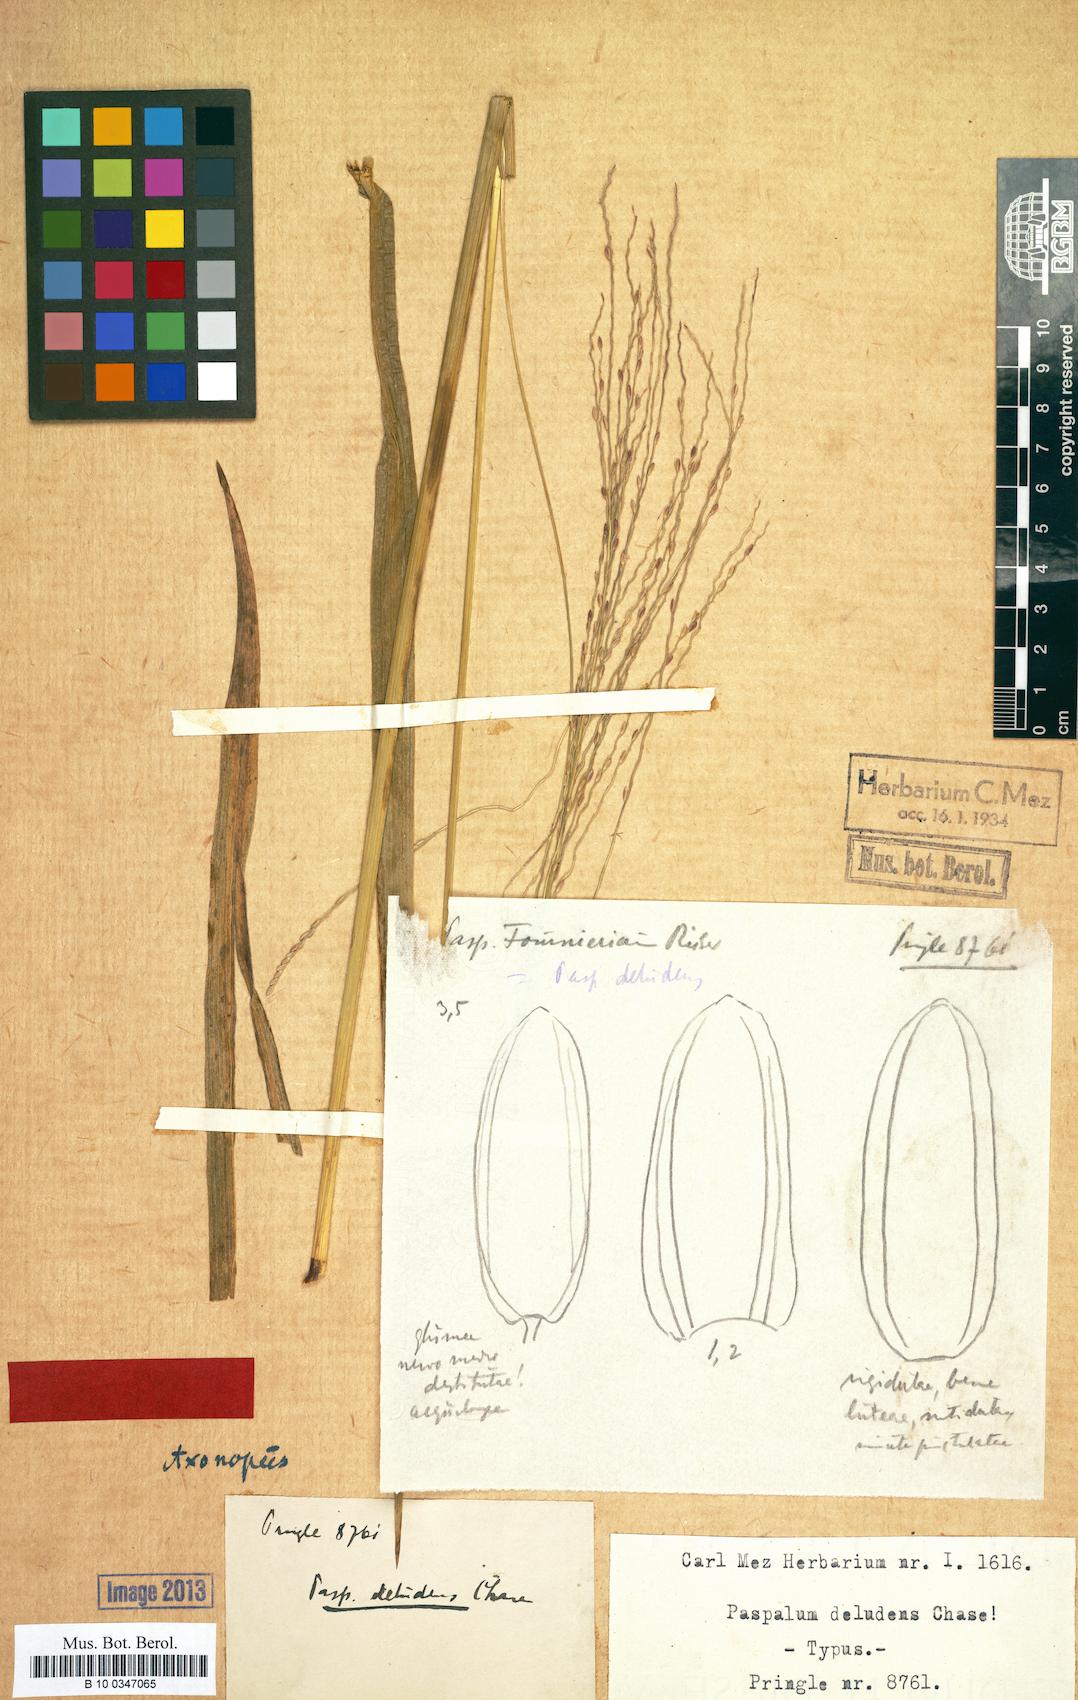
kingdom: Plantae
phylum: Tracheophyta
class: Liliopsida
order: Poales
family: Poaceae
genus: Axonopus
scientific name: Axonopus scoparius
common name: Imperial grass
